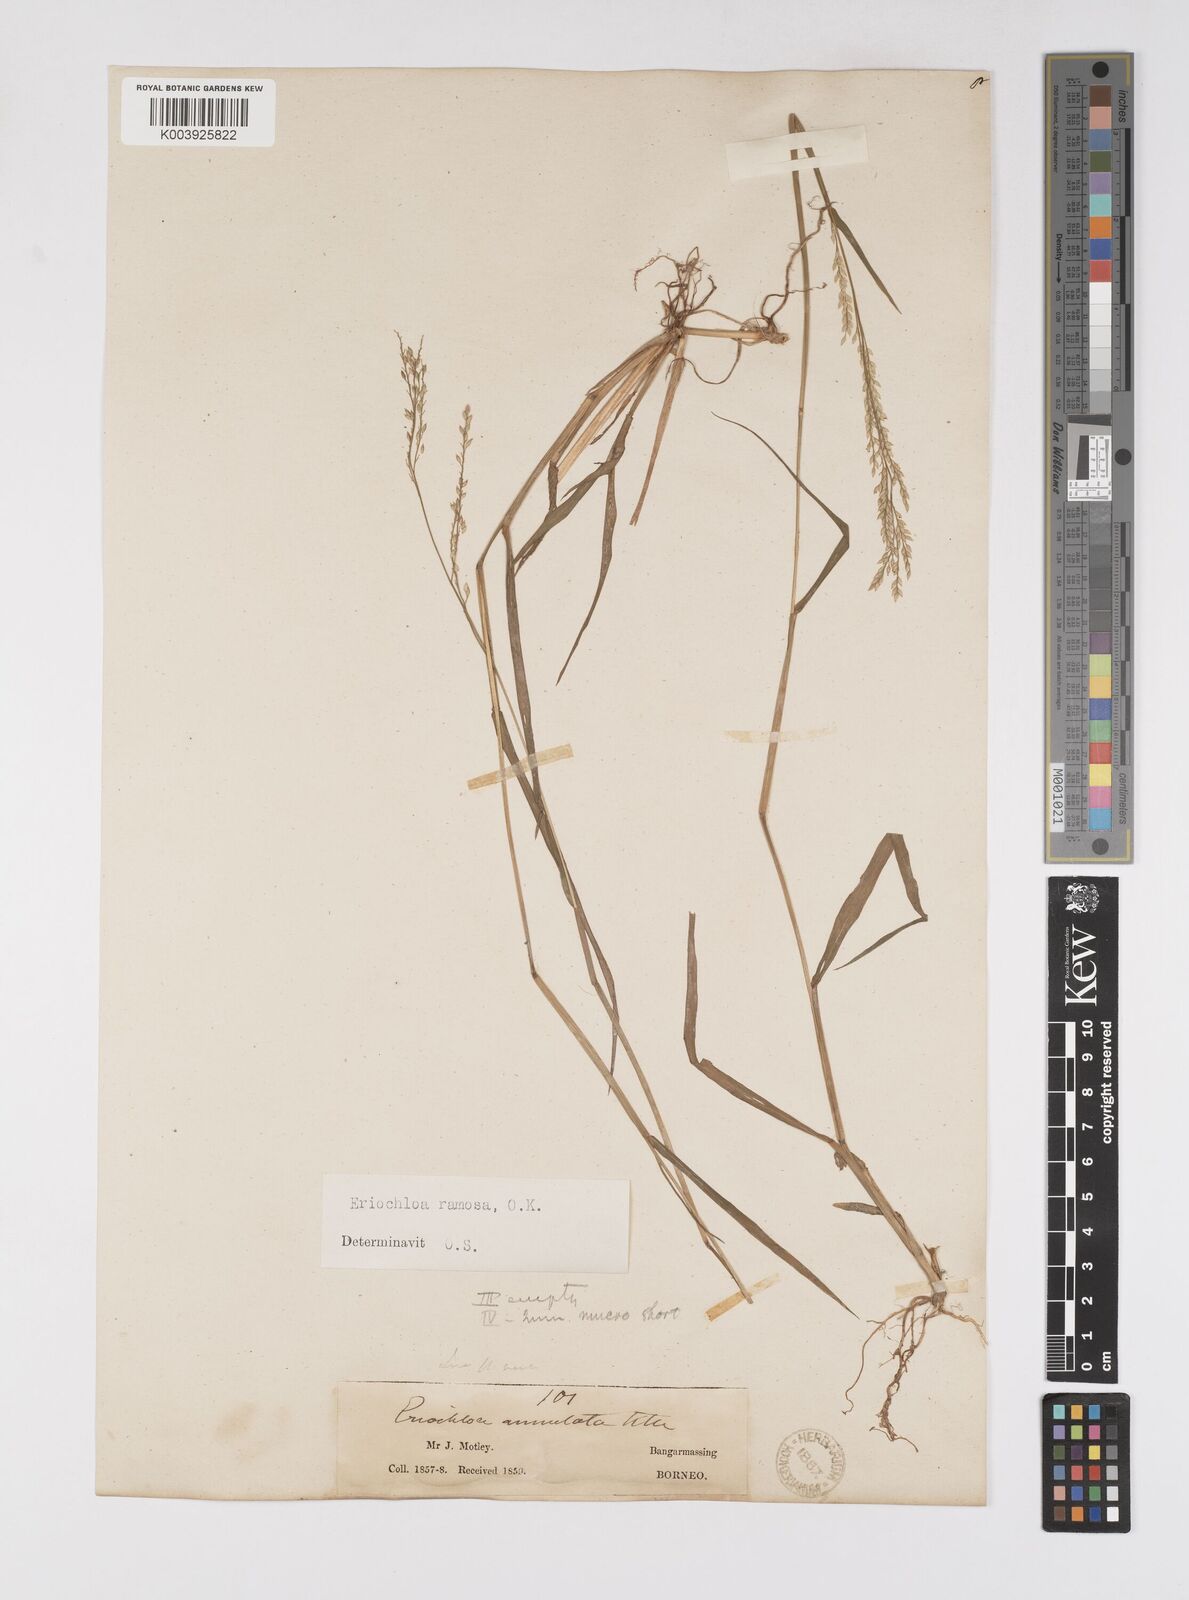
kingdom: Plantae
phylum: Tracheophyta
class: Liliopsida
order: Poales
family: Poaceae
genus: Eriochloa
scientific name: Eriochloa procera
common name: Spring grass
